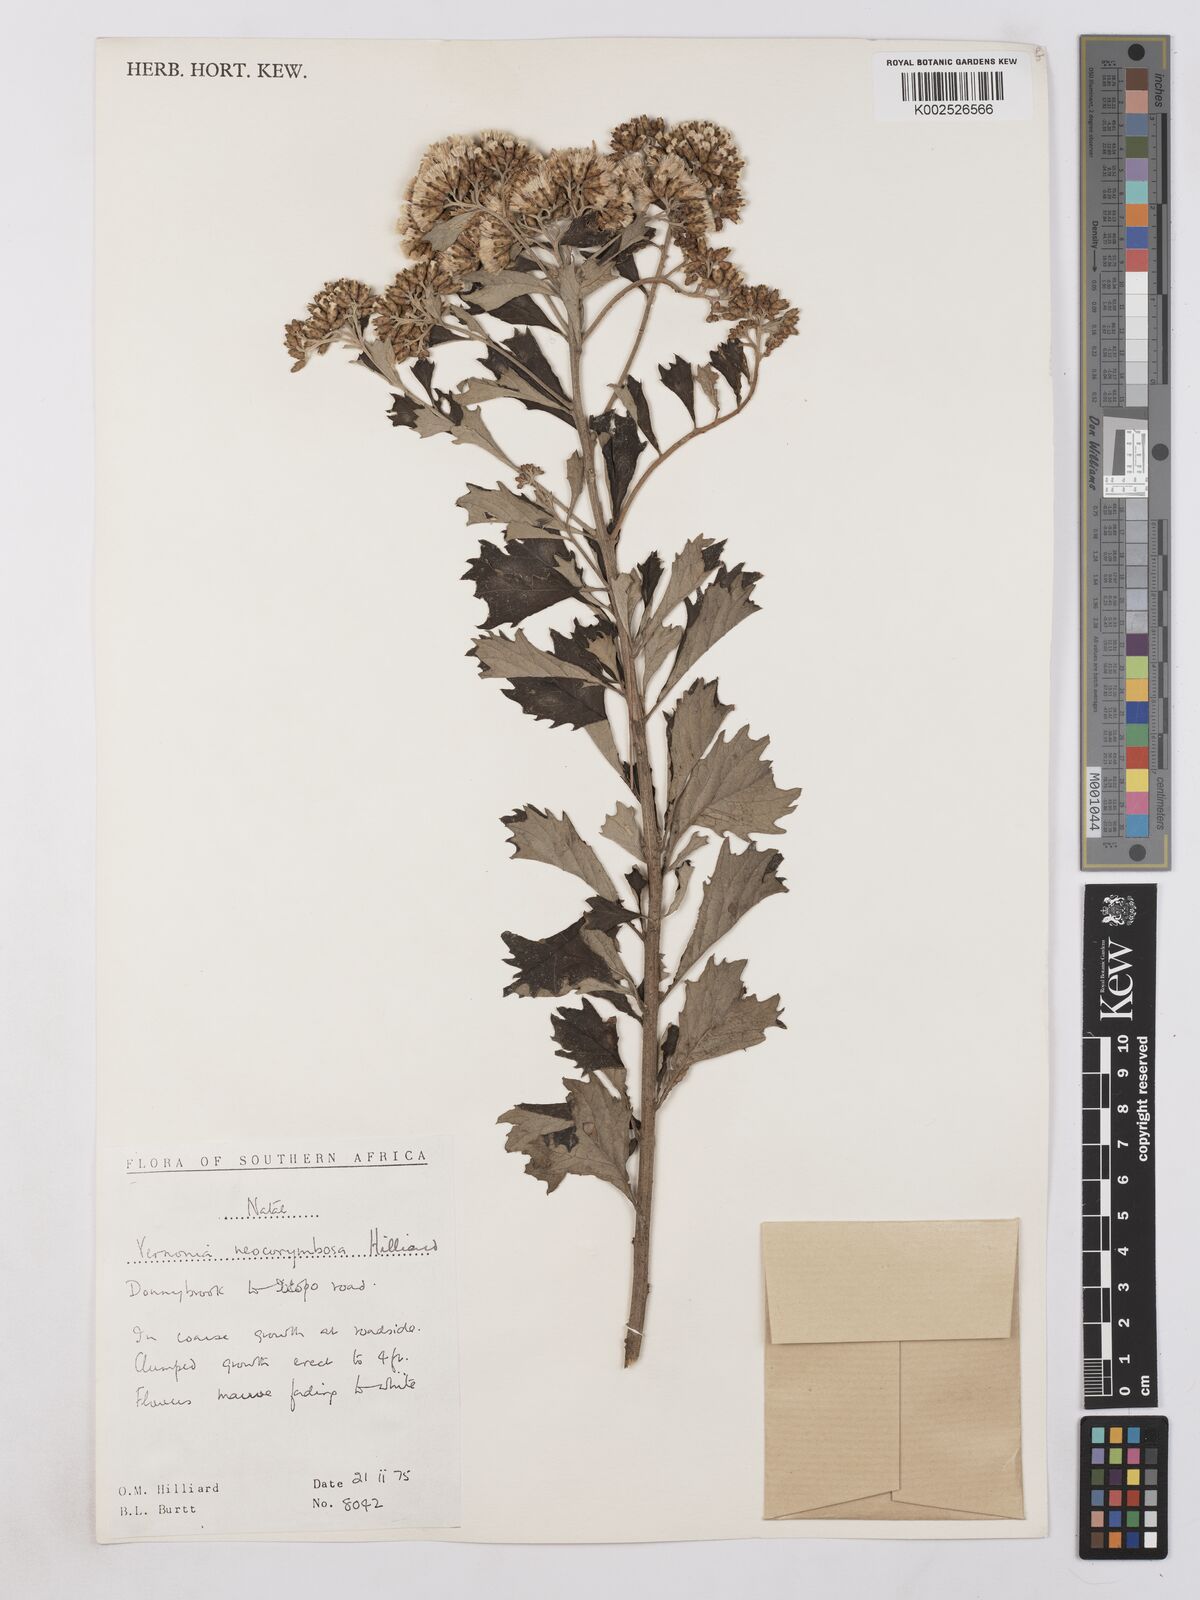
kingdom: Plantae
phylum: Tracheophyta
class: Magnoliopsida
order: Asterales
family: Asteraceae
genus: Gymnanthemum
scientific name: Gymnanthemum corymbosum
